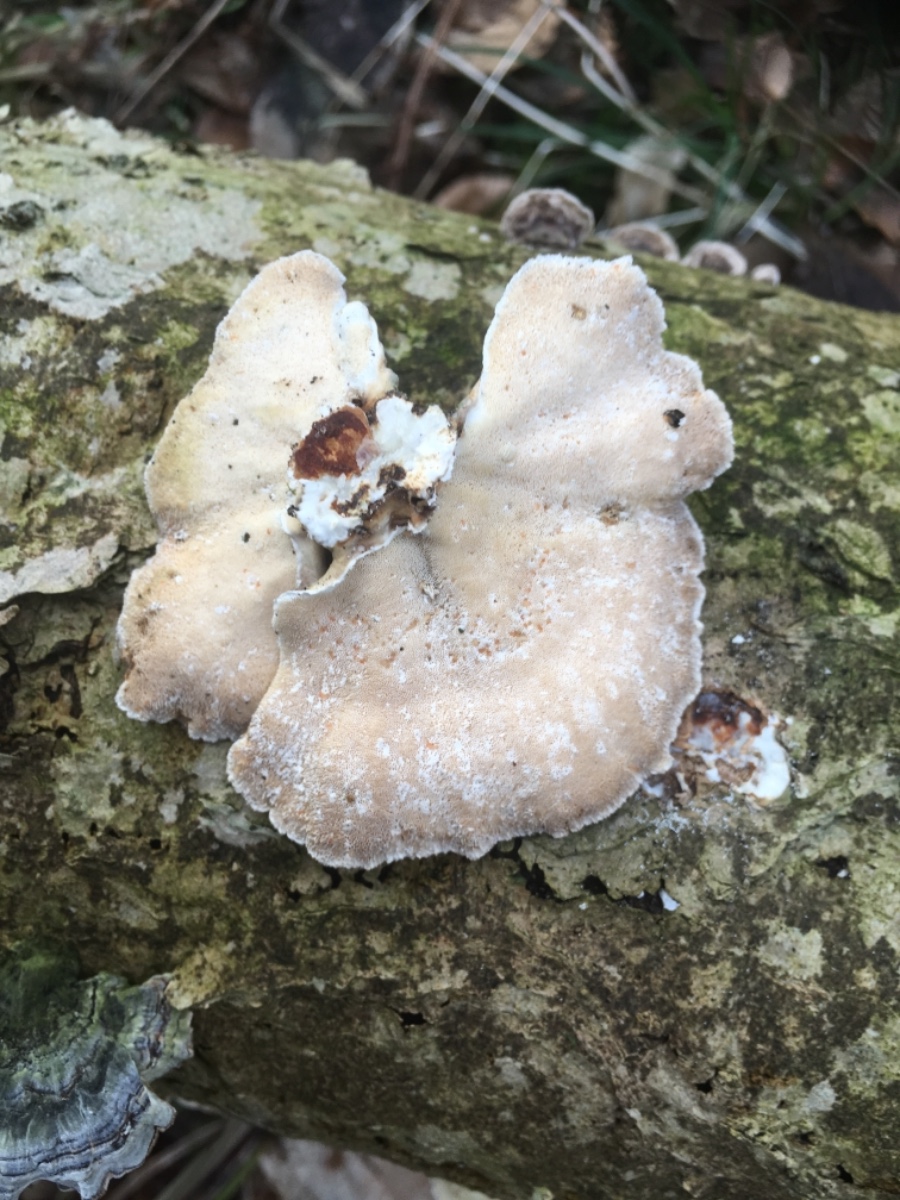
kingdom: Fungi
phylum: Basidiomycota
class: Agaricomycetes
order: Polyporales
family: Polyporaceae
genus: Trametes
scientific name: Trametes versicolor
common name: broget læderporesvamp
